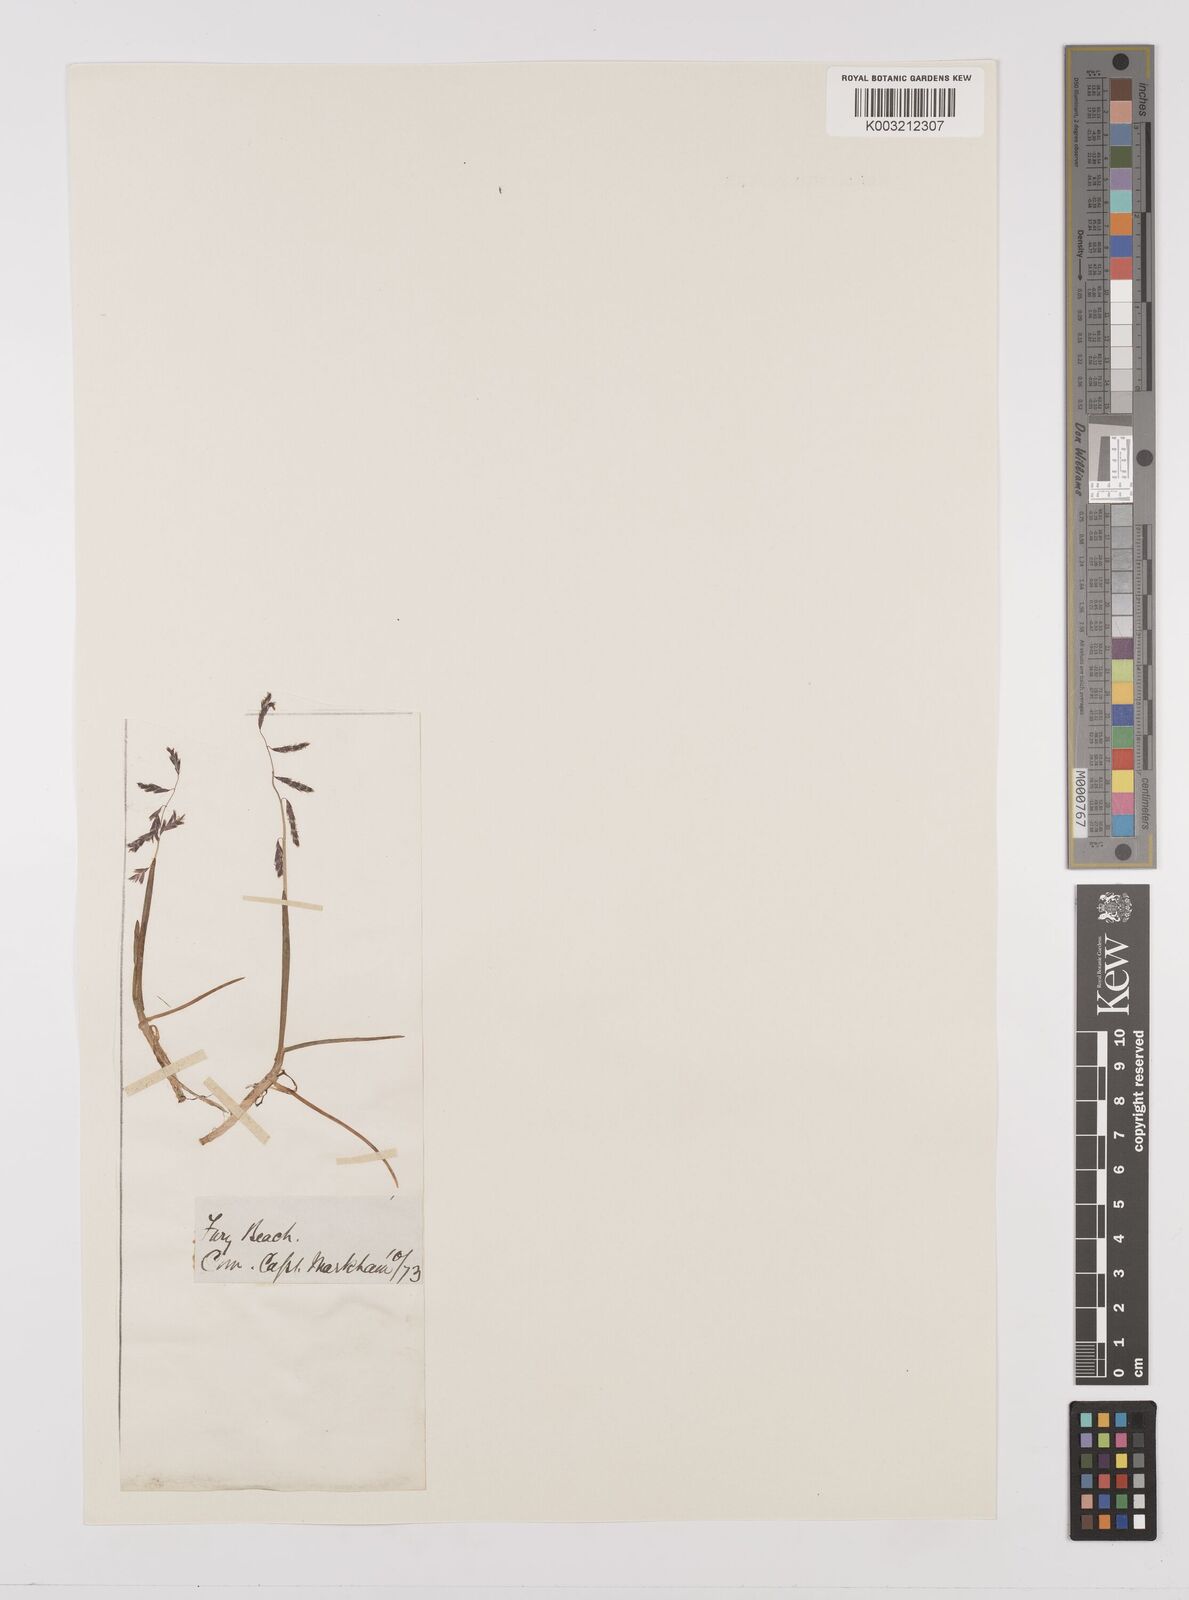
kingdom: Plantae
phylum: Tracheophyta
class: Liliopsida
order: Poales
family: Poaceae
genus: Pleuropogon
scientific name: Pleuropogon sabinei
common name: Sabine's false semaphoregrass
